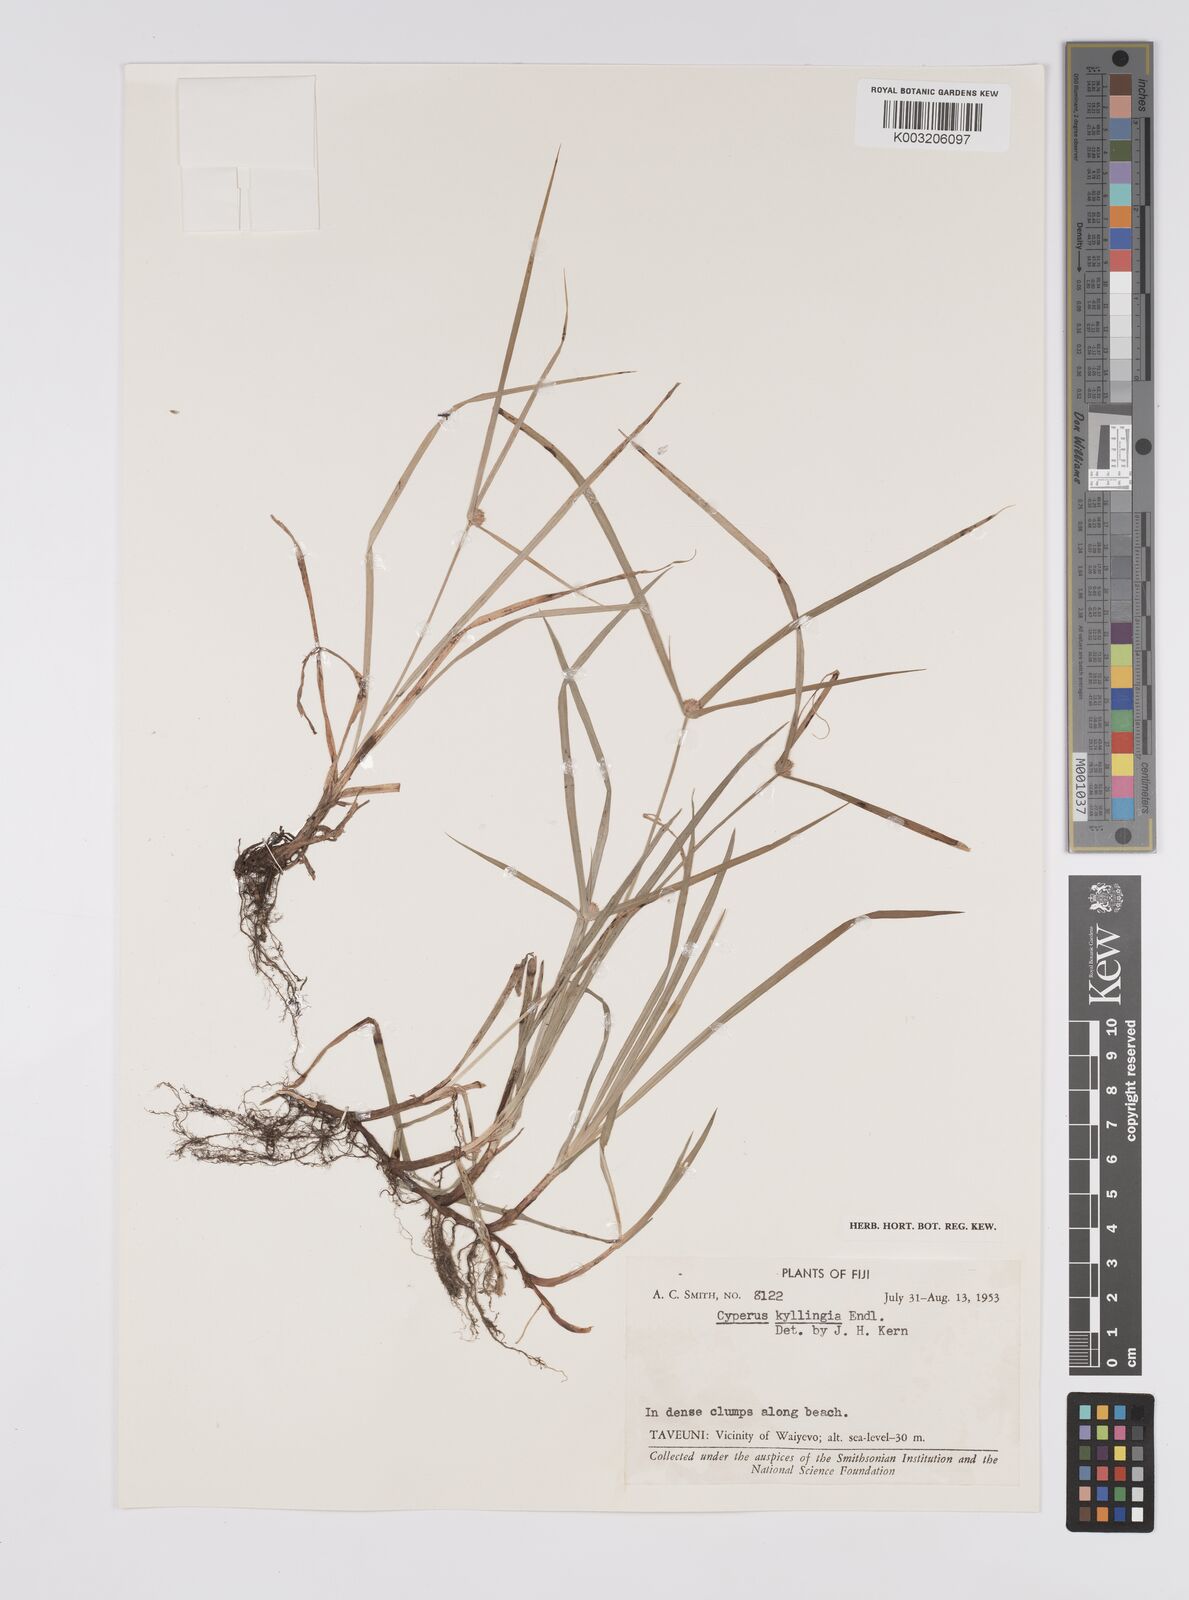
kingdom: Plantae
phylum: Tracheophyta
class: Liliopsida
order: Poales
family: Cyperaceae
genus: Cyperus
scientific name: Cyperus nemoralis
